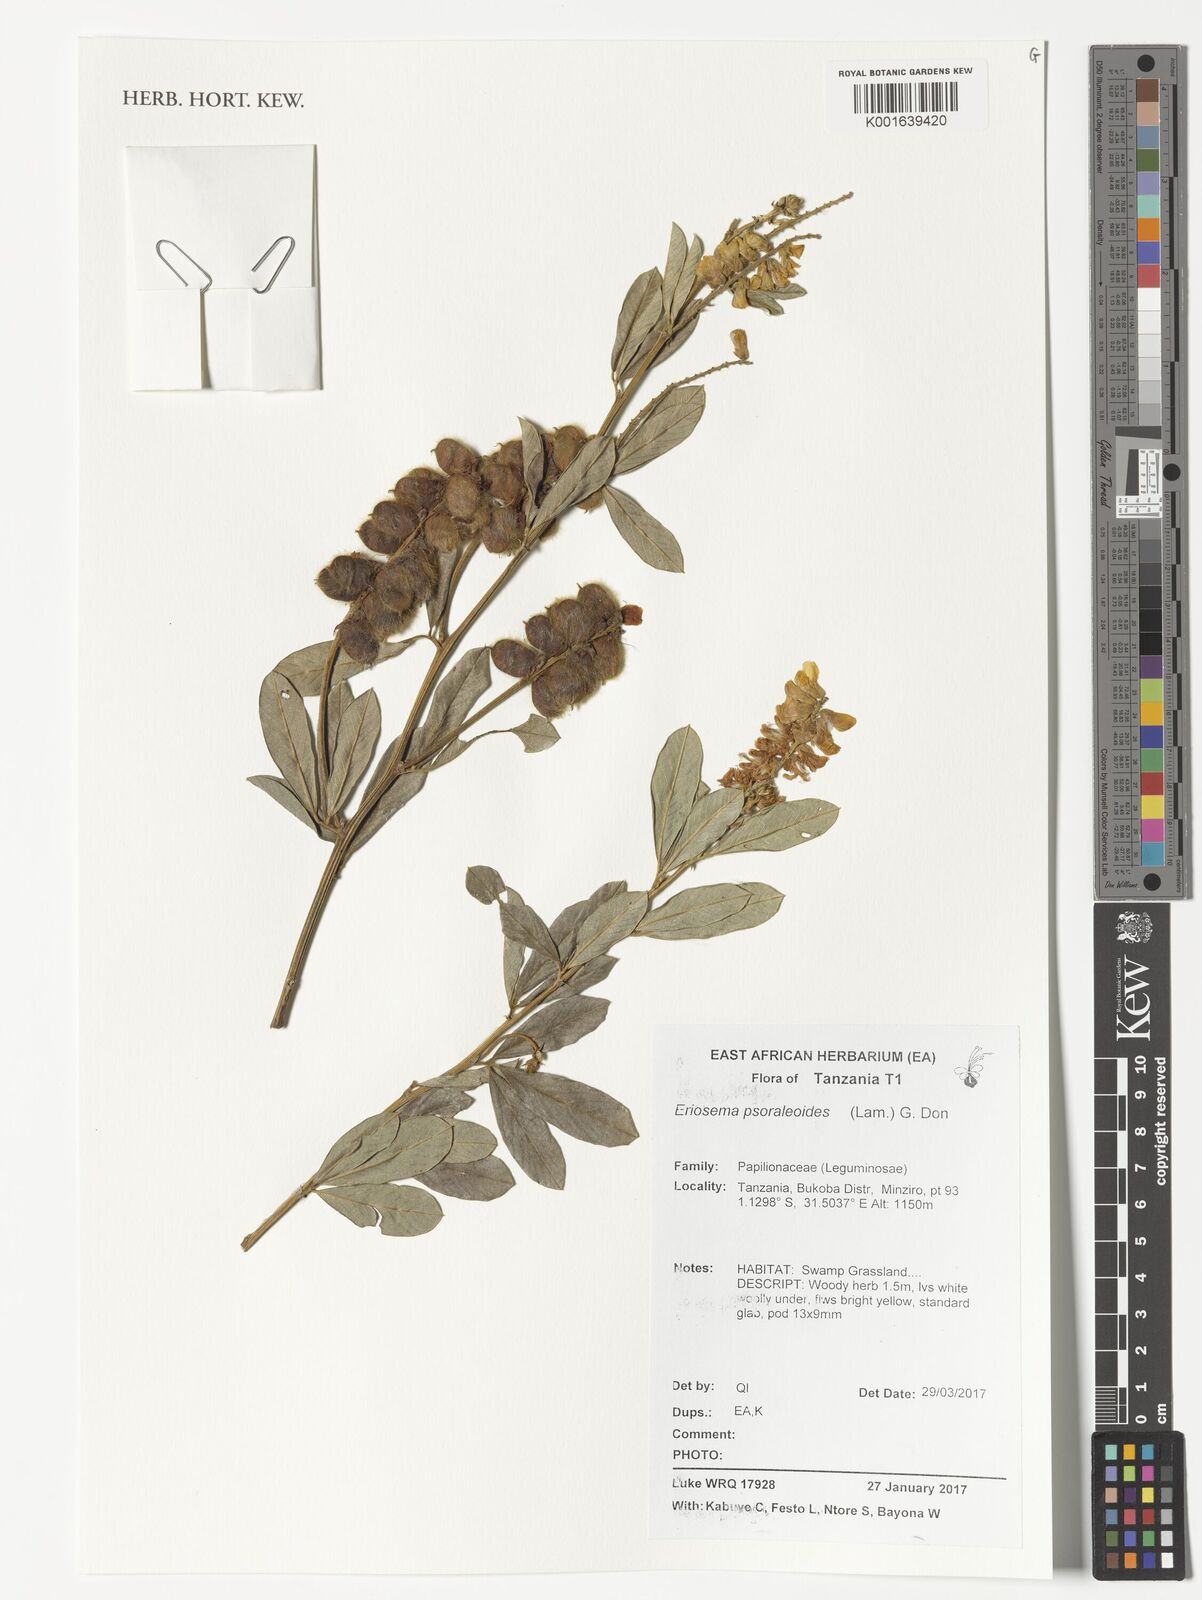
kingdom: Plantae
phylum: Tracheophyta
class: Magnoliopsida
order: Fabales
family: Fabaceae
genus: Eriosema
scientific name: Eriosema psoraleoides
